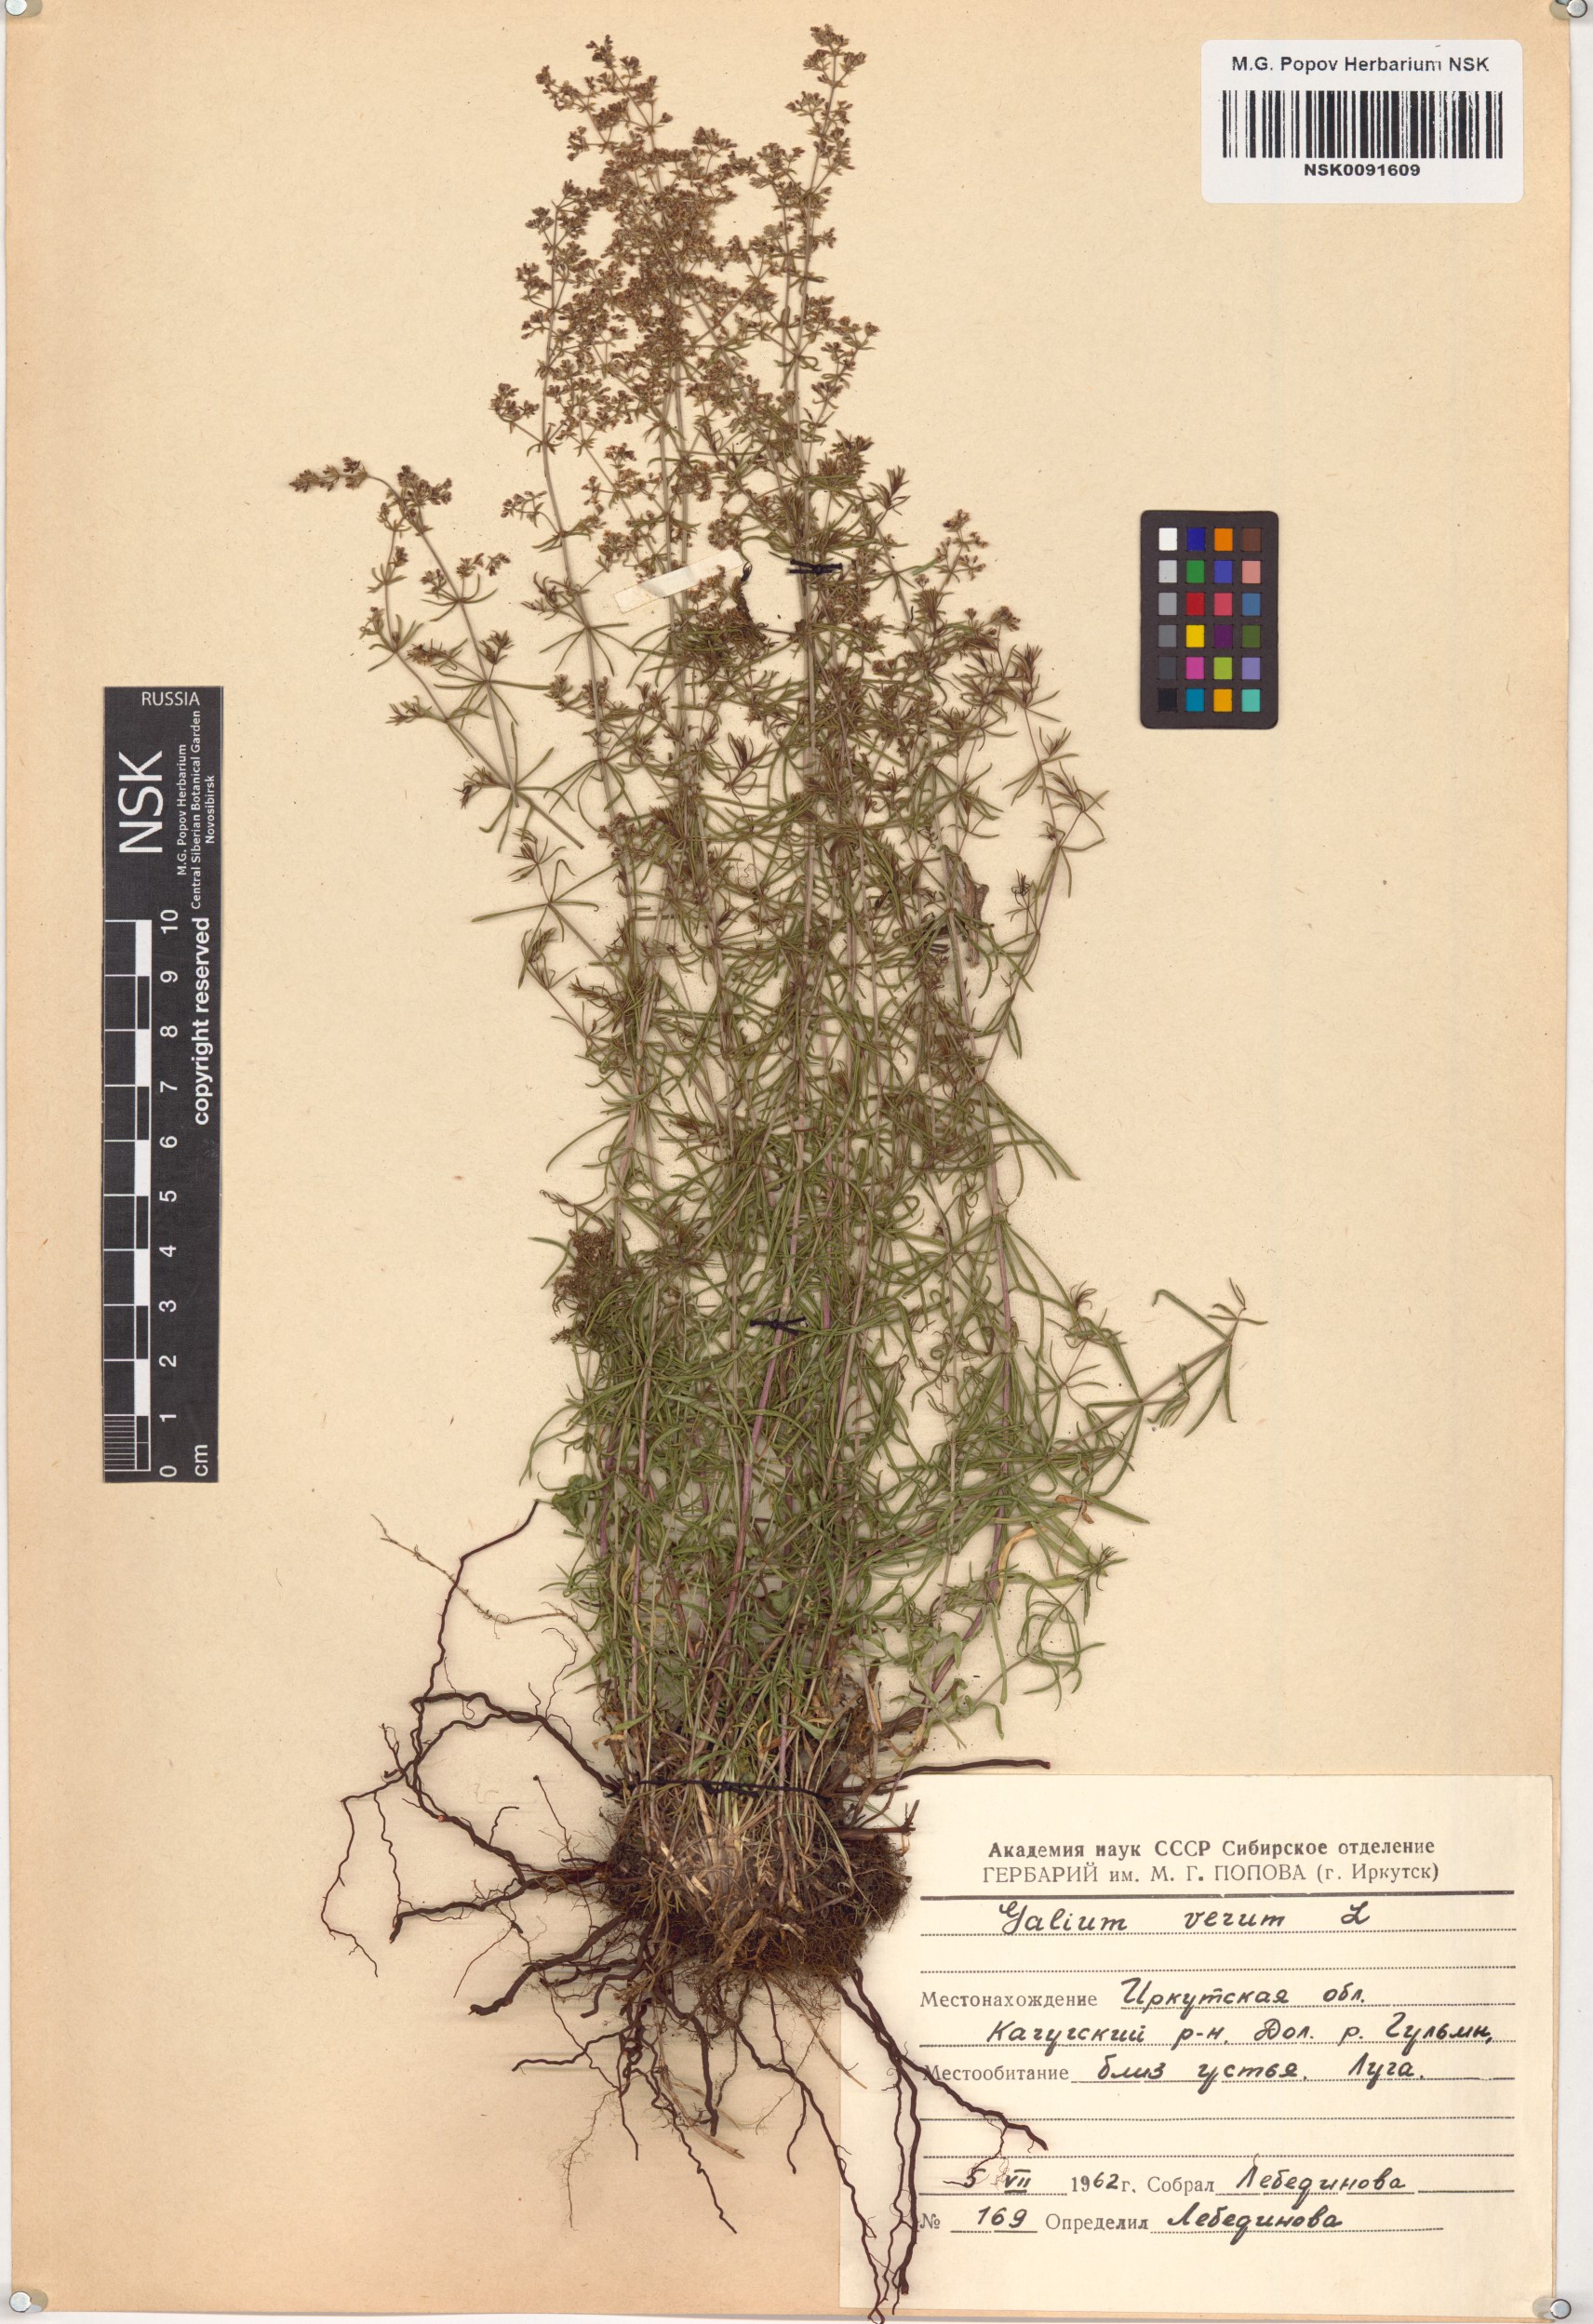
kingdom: Plantae
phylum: Tracheophyta
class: Magnoliopsida
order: Gentianales
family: Rubiaceae
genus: Galium
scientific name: Galium verum
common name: Lady's bedstraw
